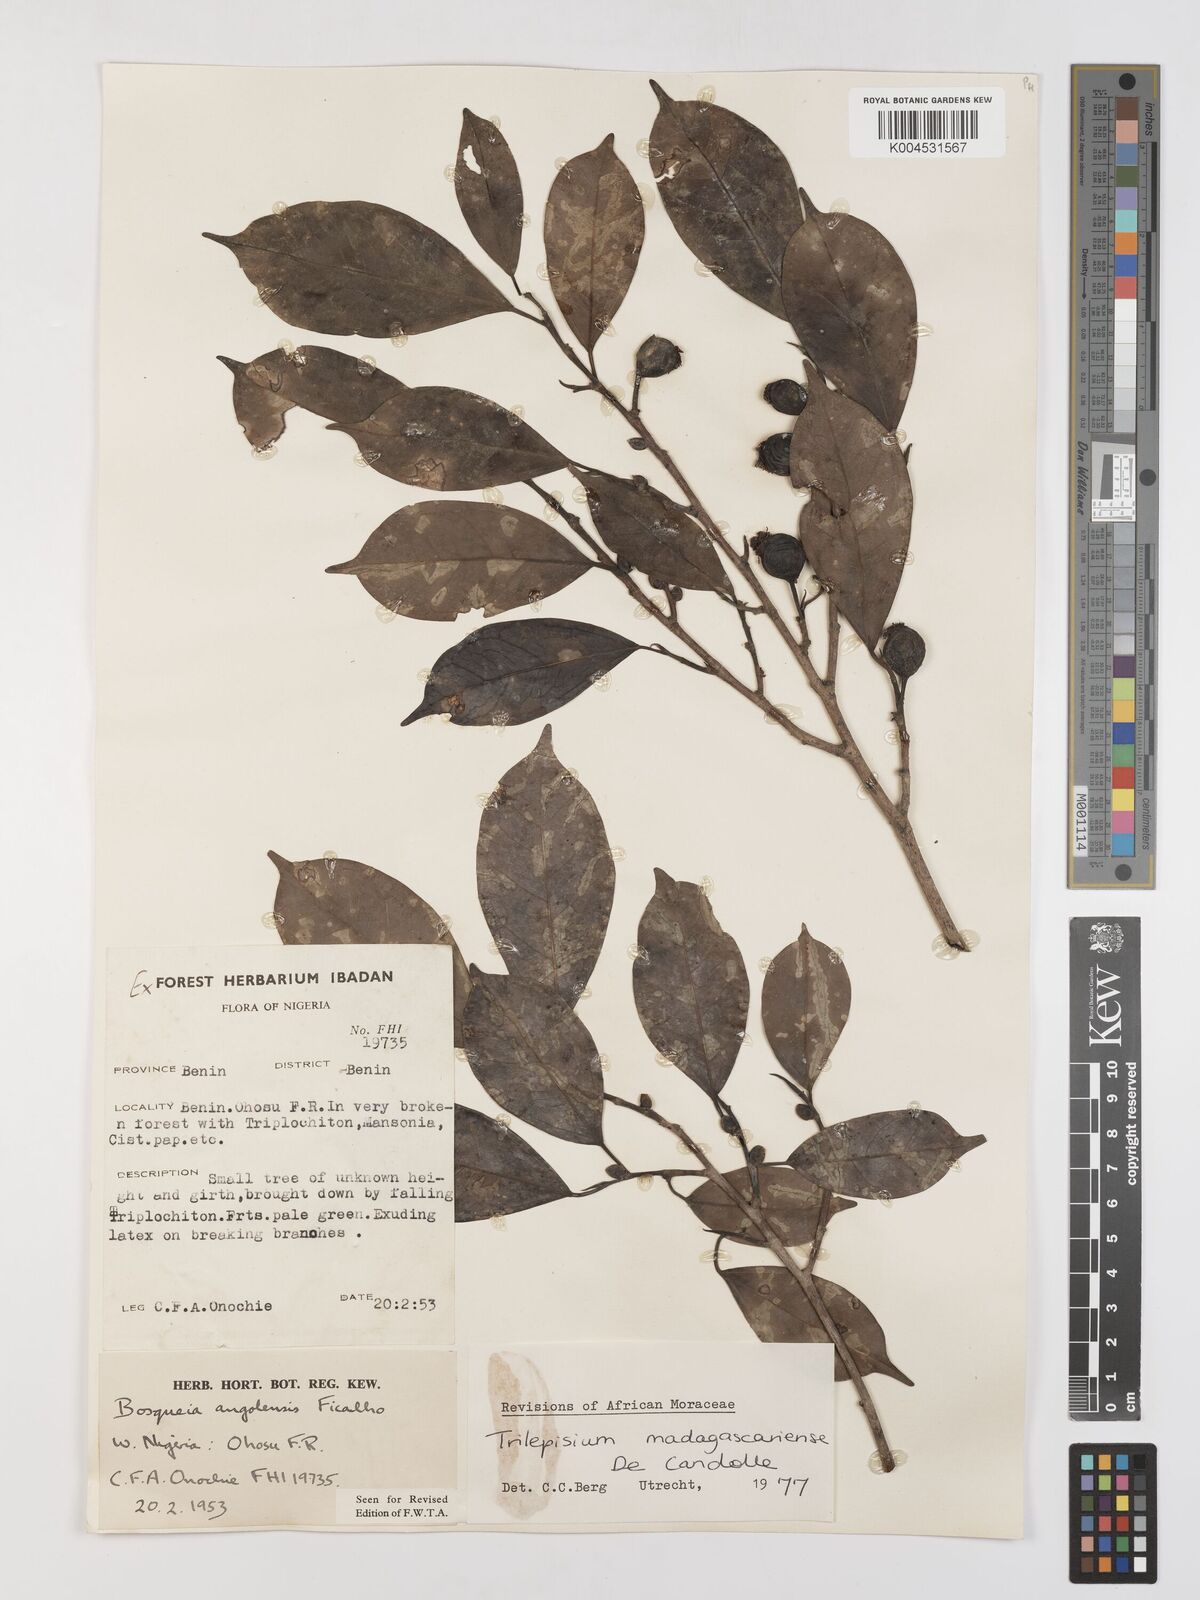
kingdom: Plantae
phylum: Tracheophyta
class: Magnoliopsida
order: Rosales
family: Moraceae
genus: Trilepisium
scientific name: Trilepisium madagascariense
